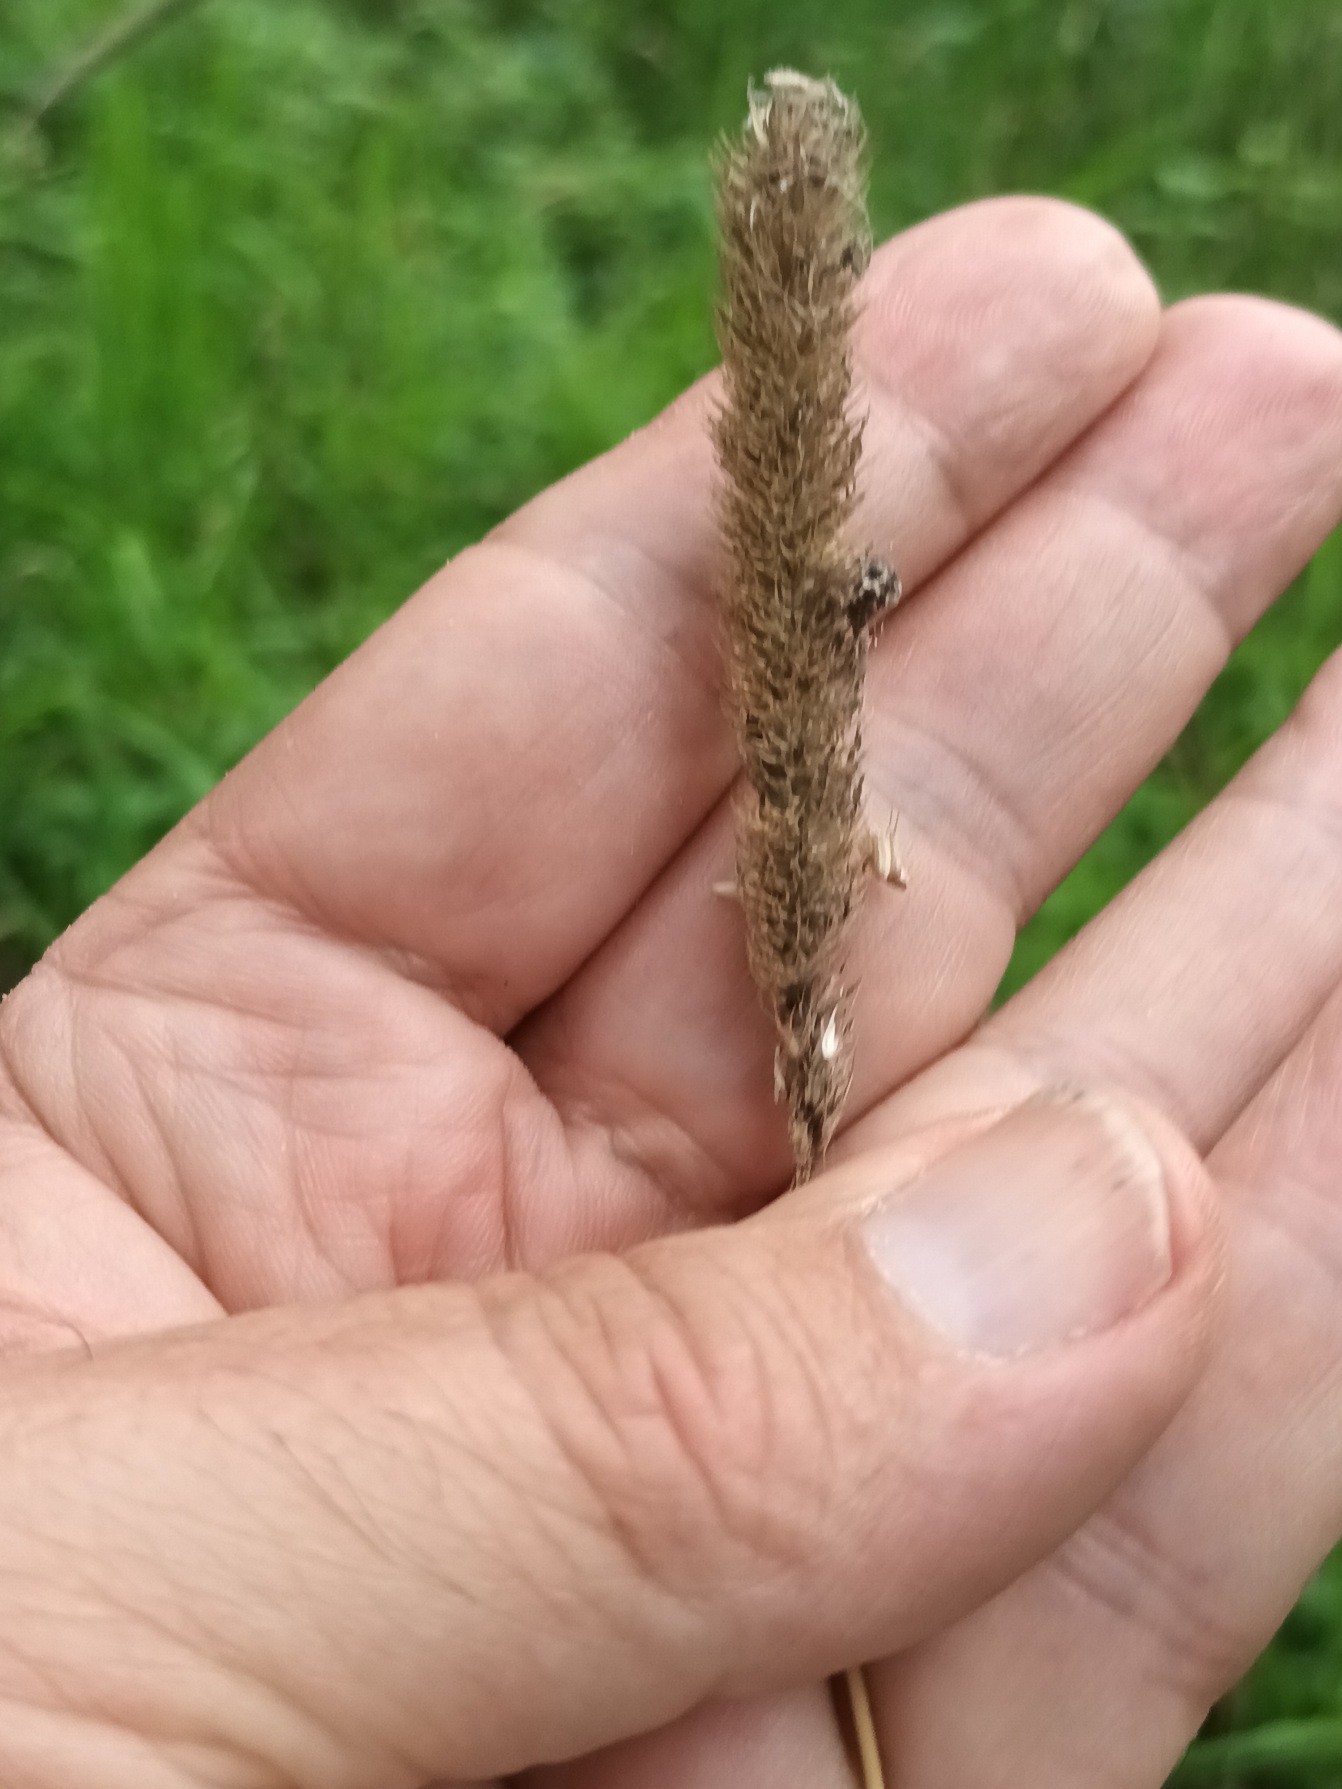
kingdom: Plantae
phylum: Tracheophyta
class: Liliopsida
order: Poales
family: Poaceae
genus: Phleum
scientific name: Phleum pratense
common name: Eng-rottehale
